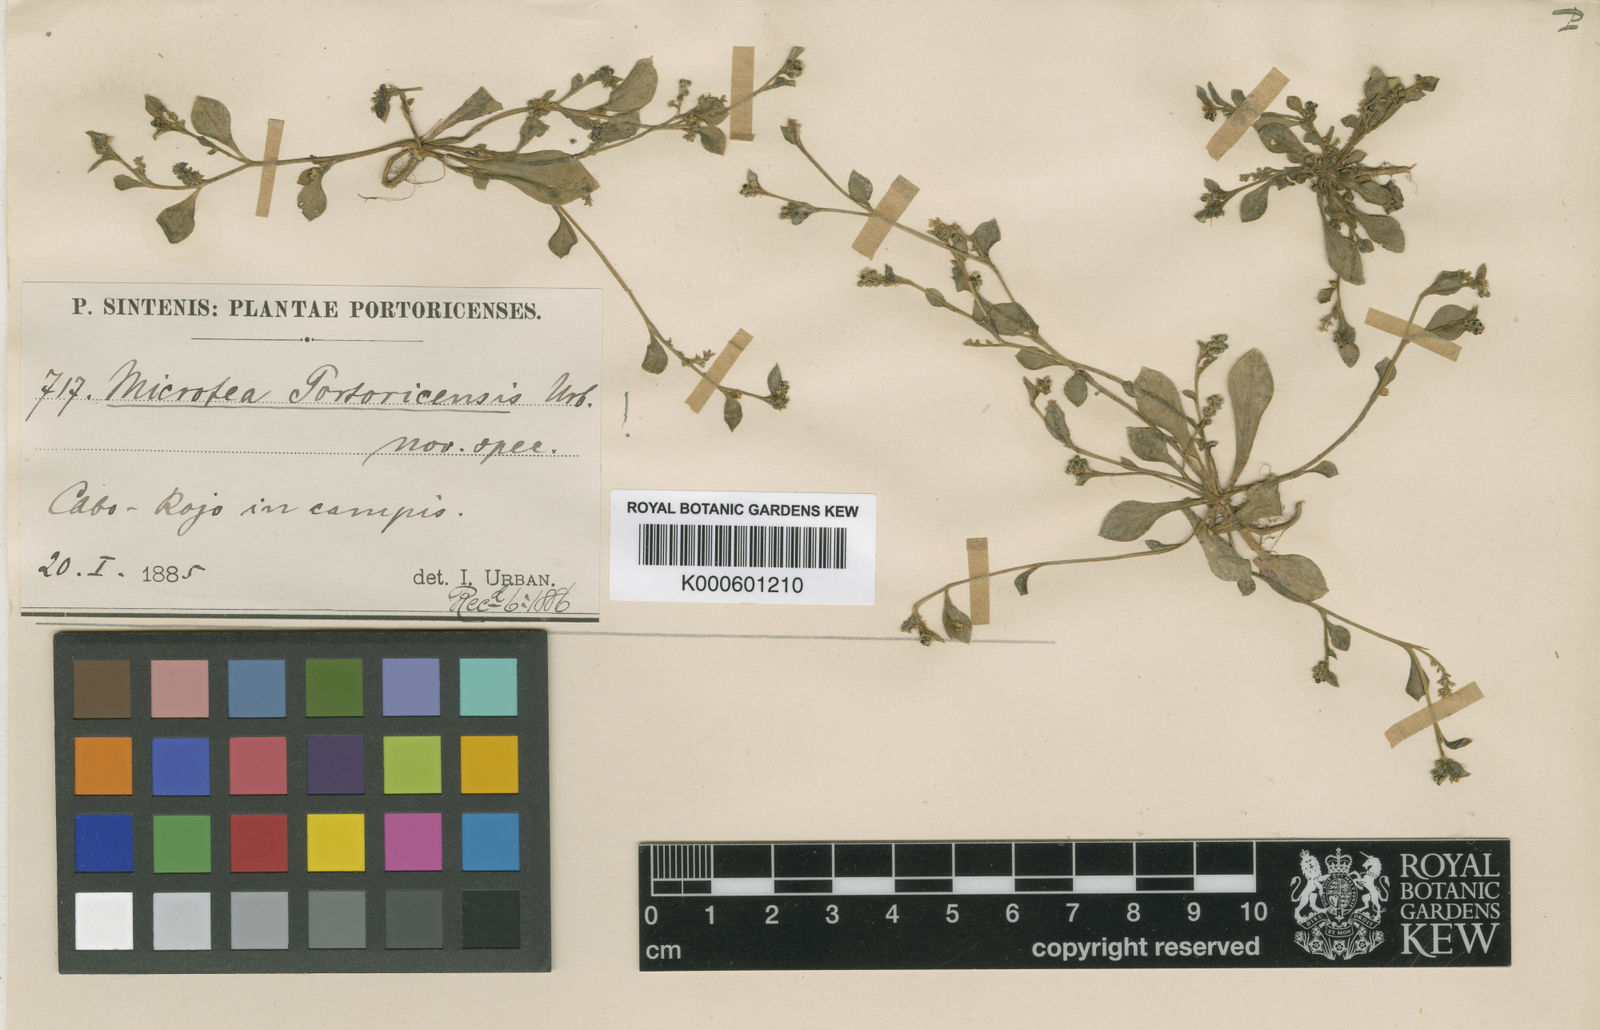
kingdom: Plantae
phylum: Tracheophyta
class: Magnoliopsida
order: Caryophyllales
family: Microteaceae
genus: Microtea
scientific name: Microtea portoricensis
